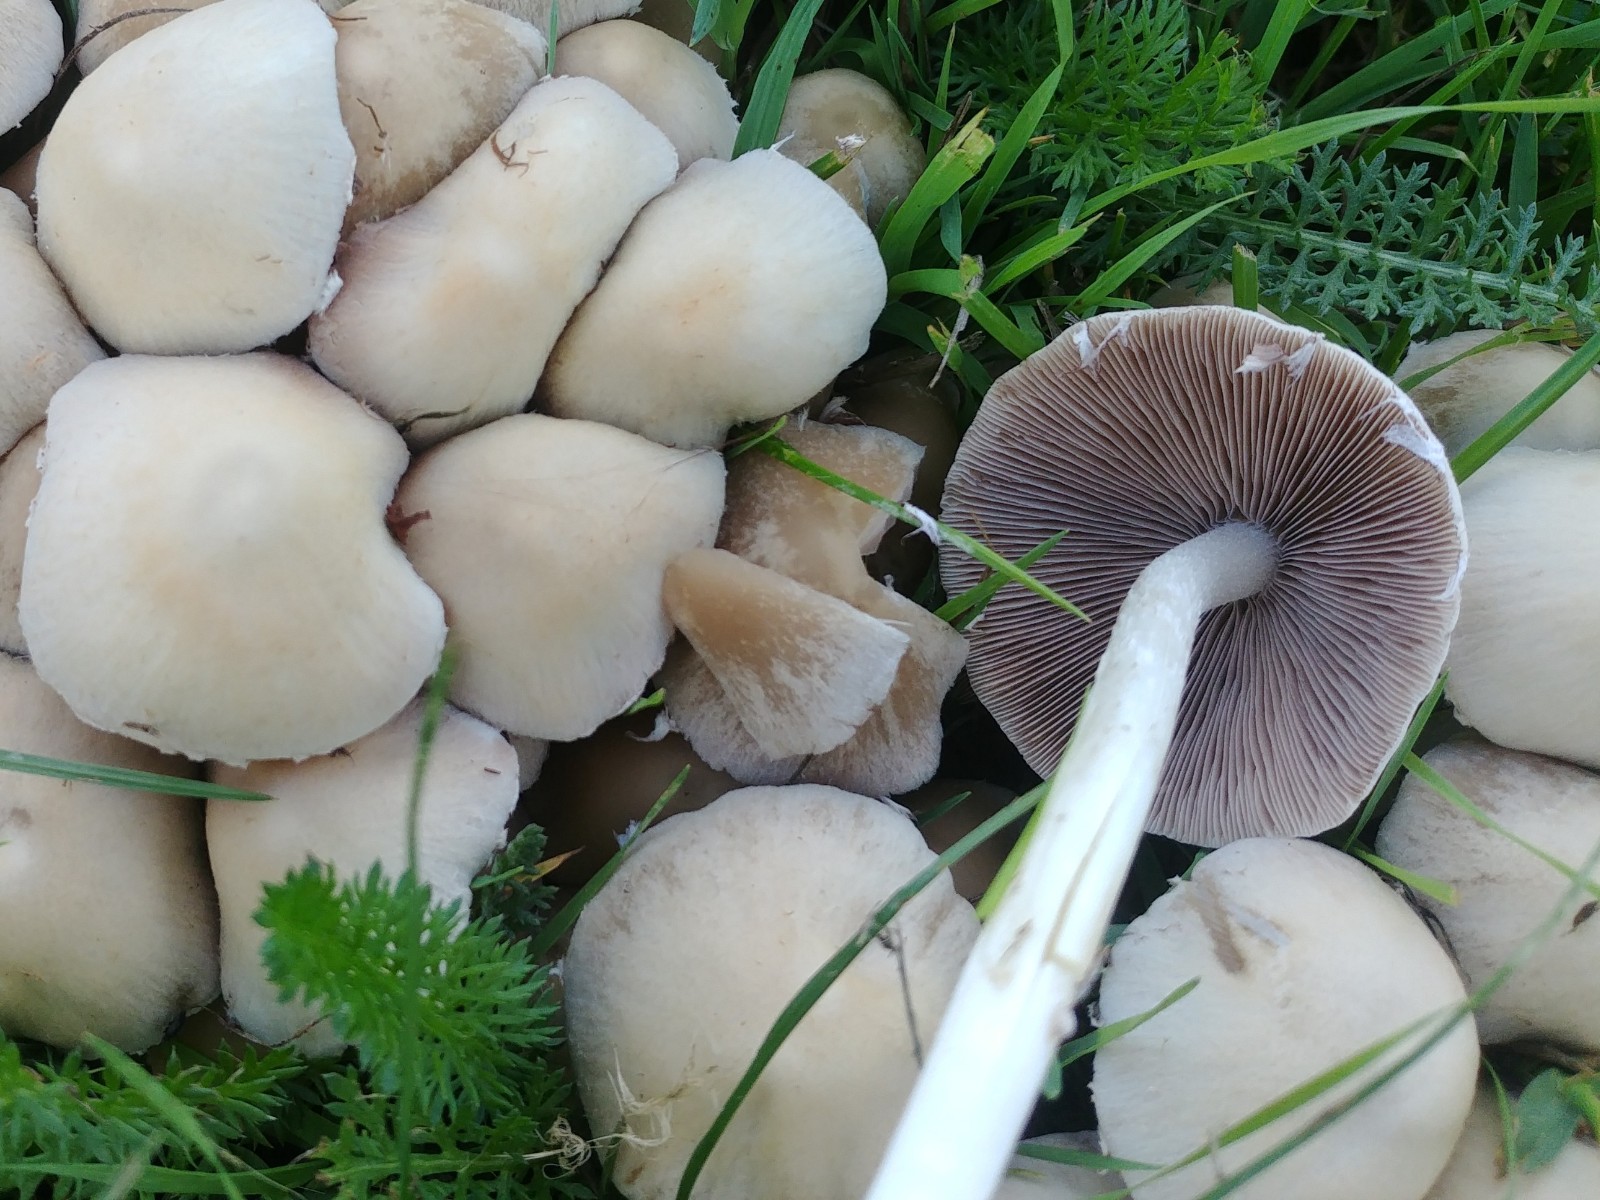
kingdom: Fungi
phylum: Basidiomycota
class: Agaricomycetes
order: Agaricales
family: Psathyrellaceae
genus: Candolleomyces
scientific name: Candolleomyces candolleanus
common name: Candolles mørkhat
